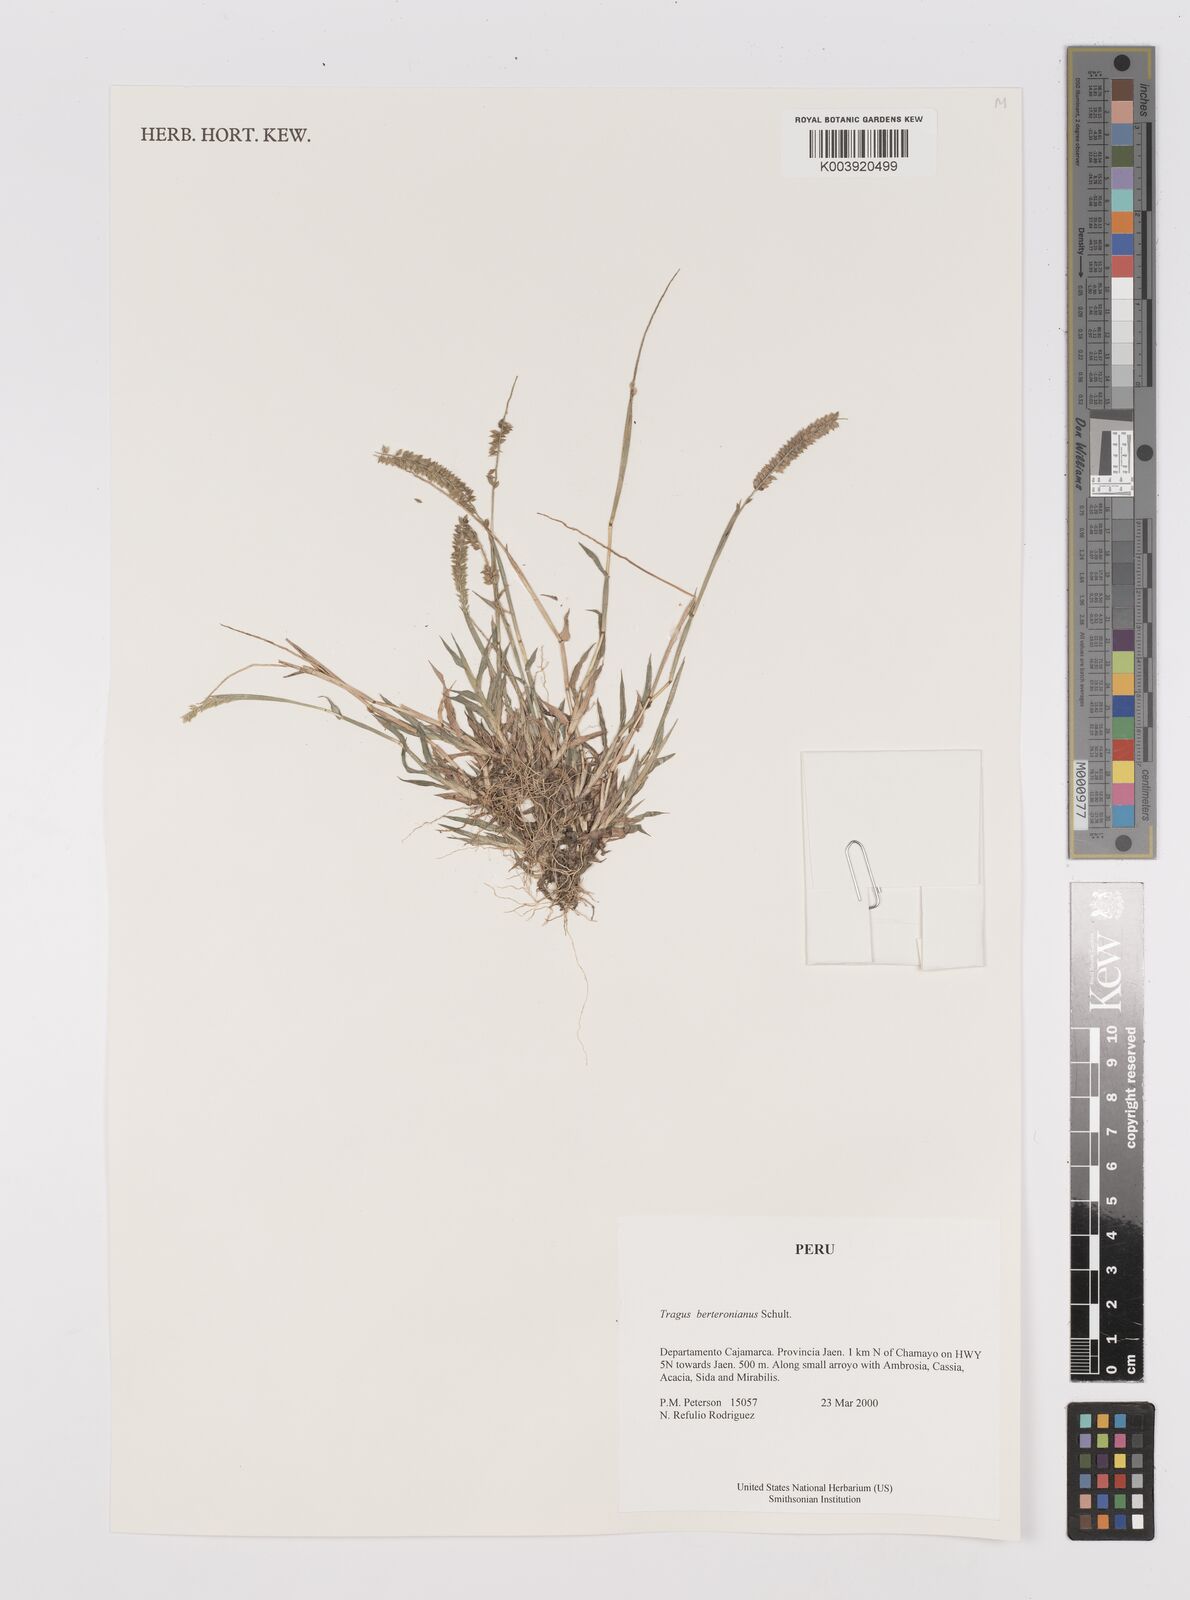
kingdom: Plantae
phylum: Tracheophyta
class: Liliopsida
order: Poales
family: Poaceae
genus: Tragus
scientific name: Tragus berteronianus
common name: African bur-grass
